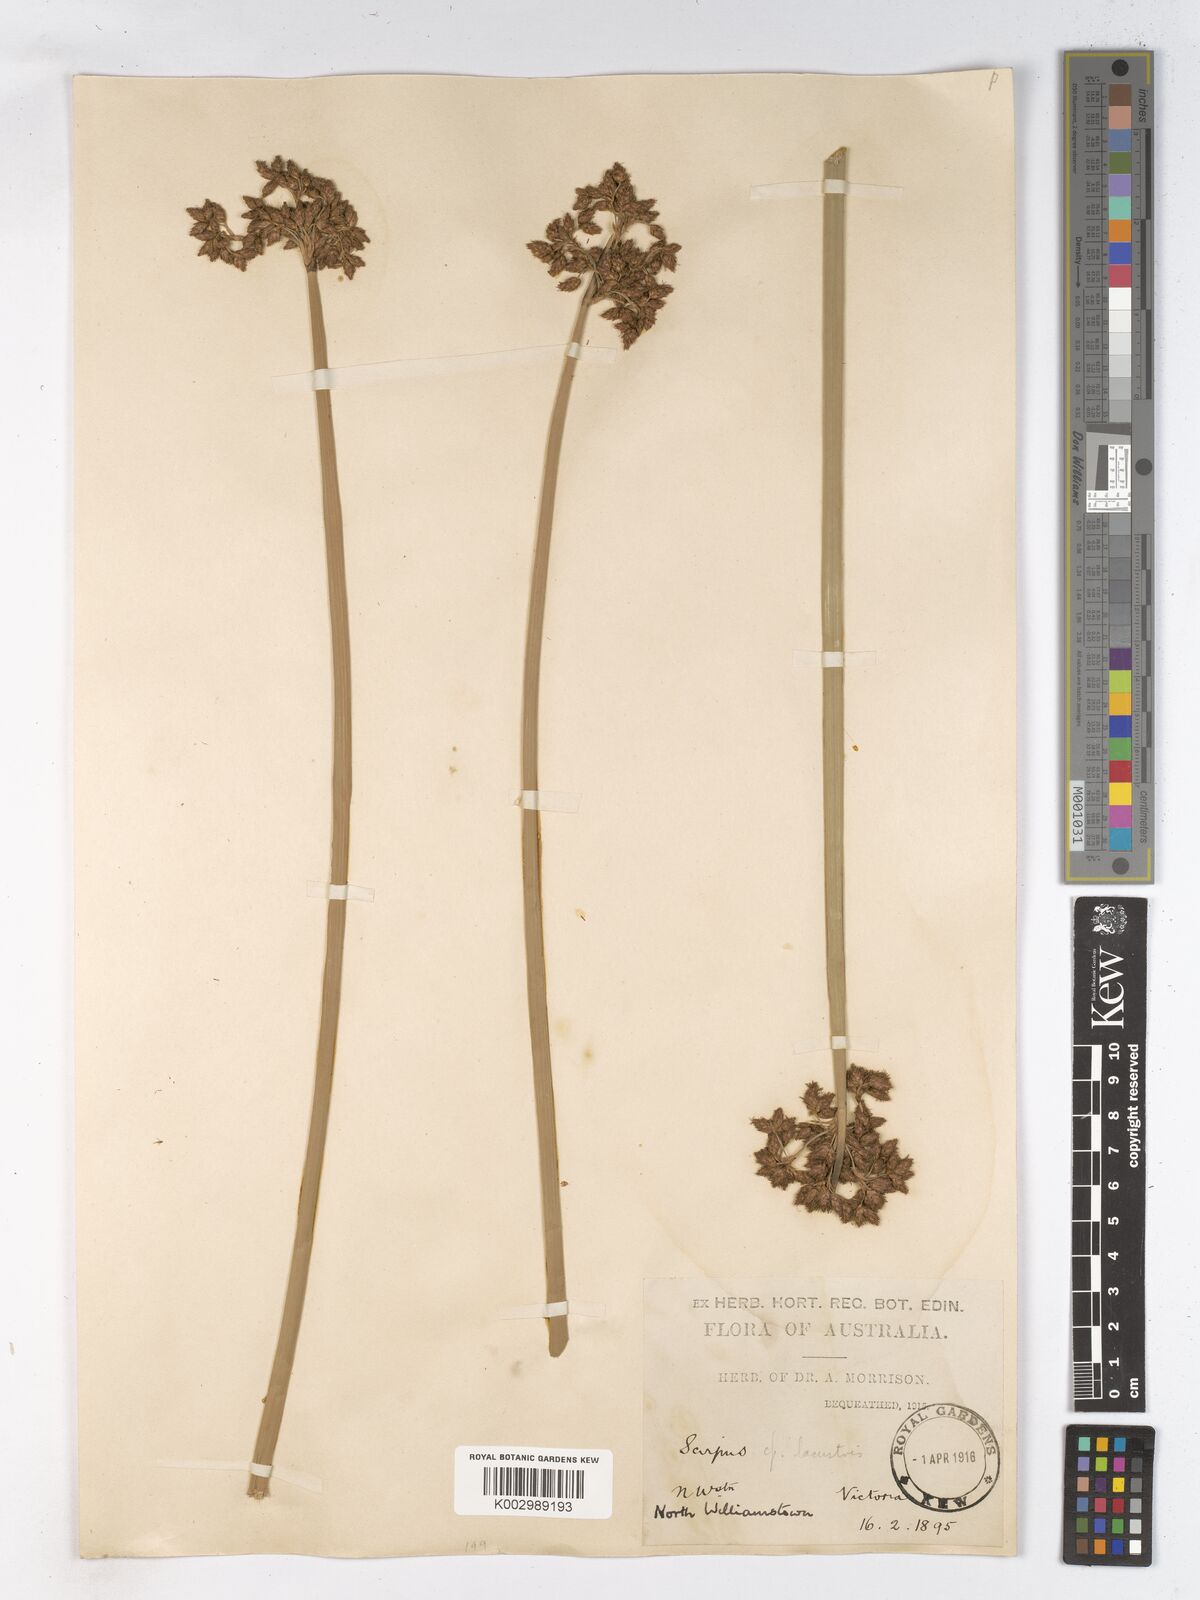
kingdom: Plantae
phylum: Tracheophyta
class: Liliopsida
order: Poales
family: Cyperaceae
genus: Schoenoplectus
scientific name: Schoenoplectus lacustris
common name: Common club-rush
